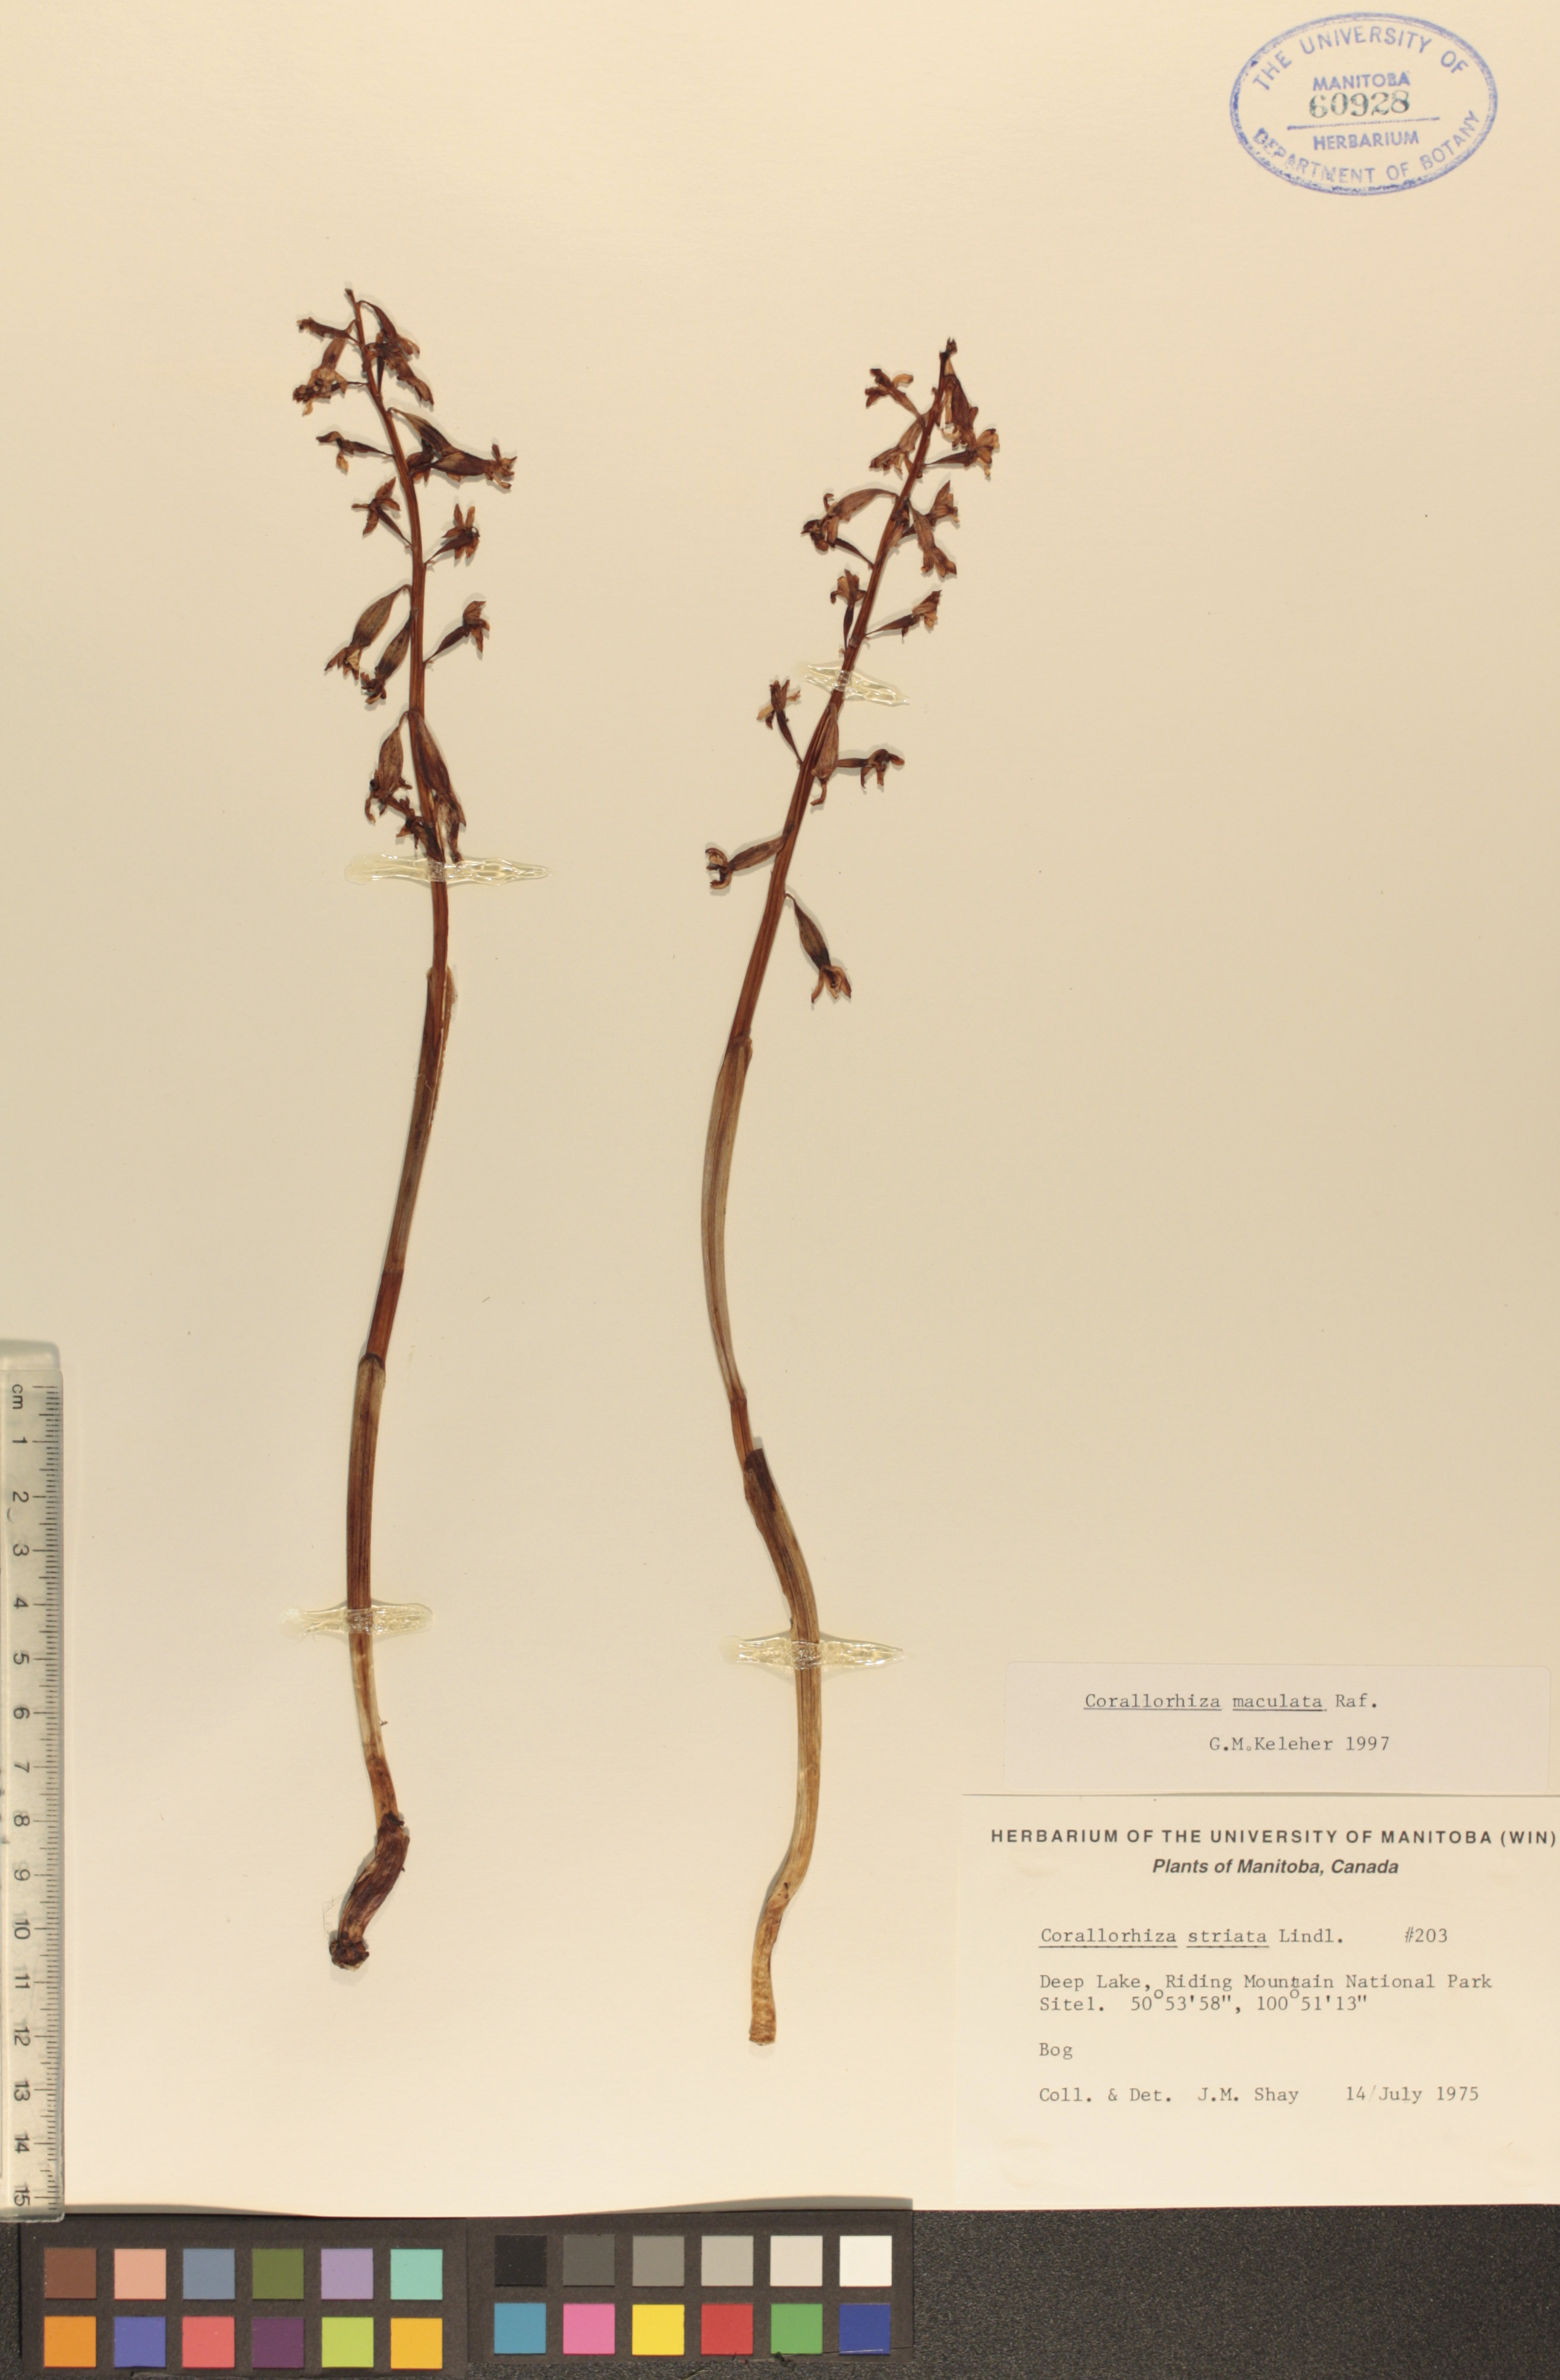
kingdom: Plantae
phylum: Tracheophyta
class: Liliopsida
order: Asparagales
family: Orchidaceae
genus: Corallorhiza
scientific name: Corallorhiza maculata
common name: Spotted coralroot
